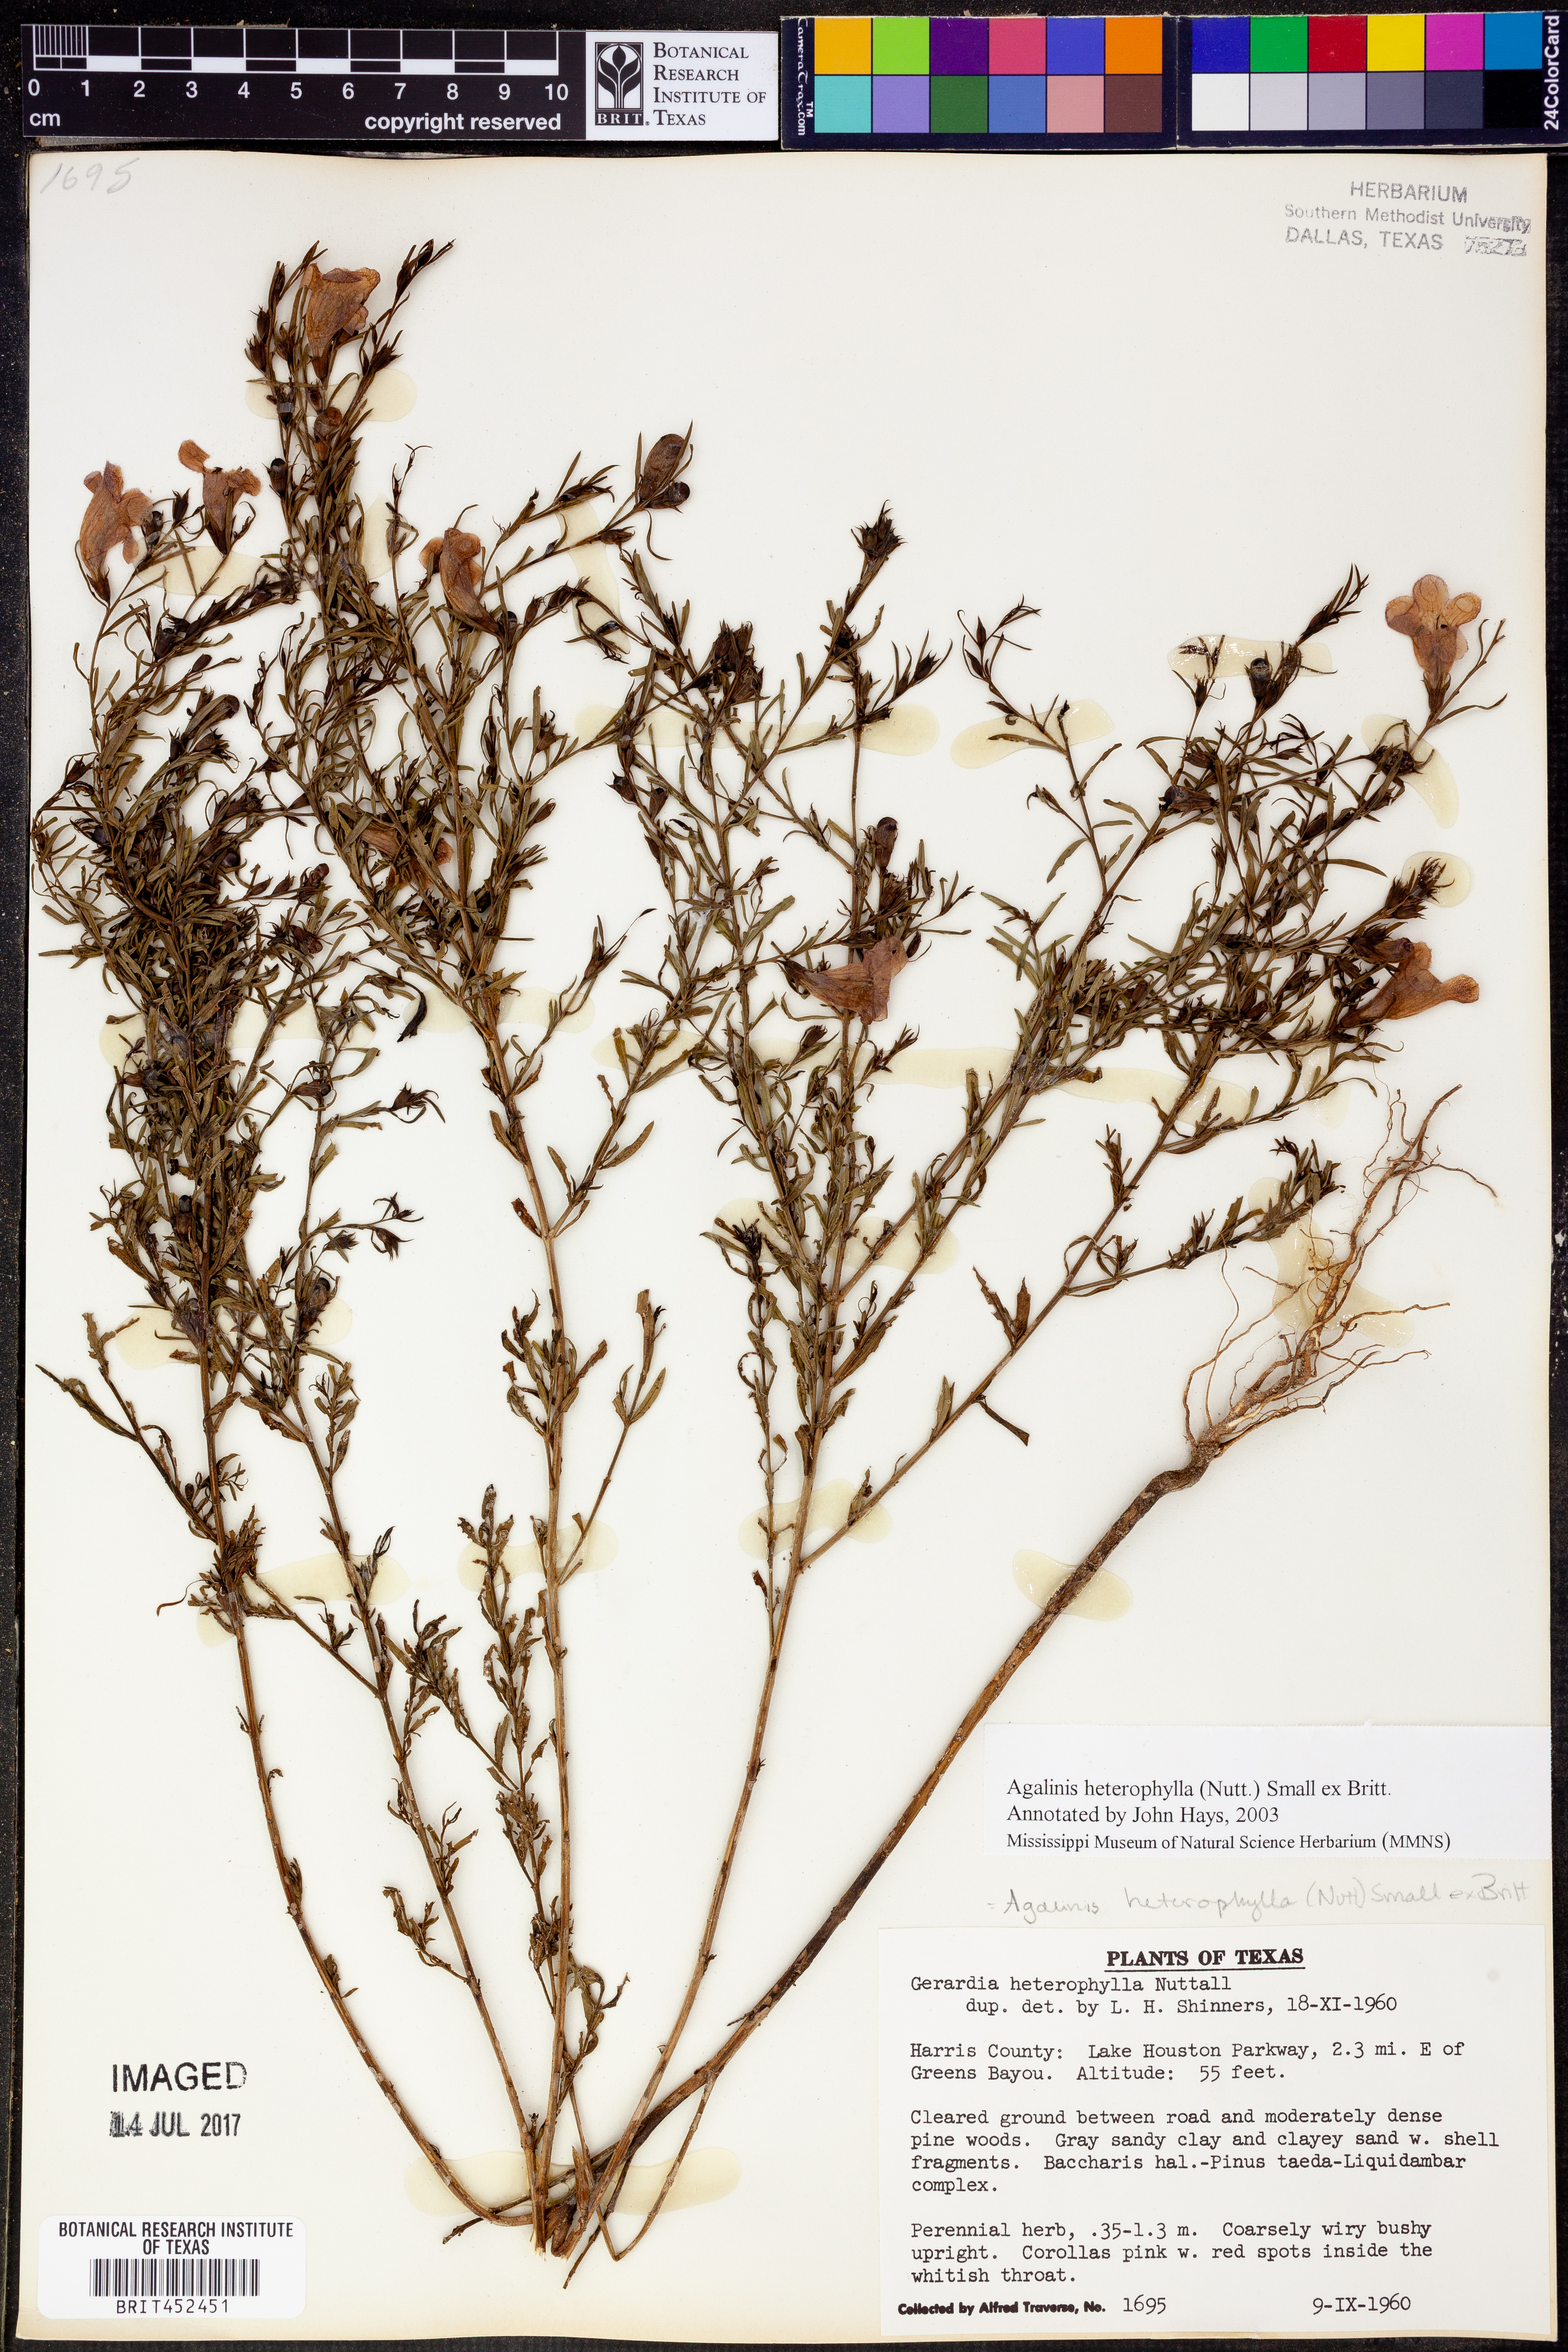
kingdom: Plantae
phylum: Tracheophyta
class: Magnoliopsida
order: Lamiales
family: Orobanchaceae
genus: Agalinis
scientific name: Agalinis heterophylla
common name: Prairie agalinis
